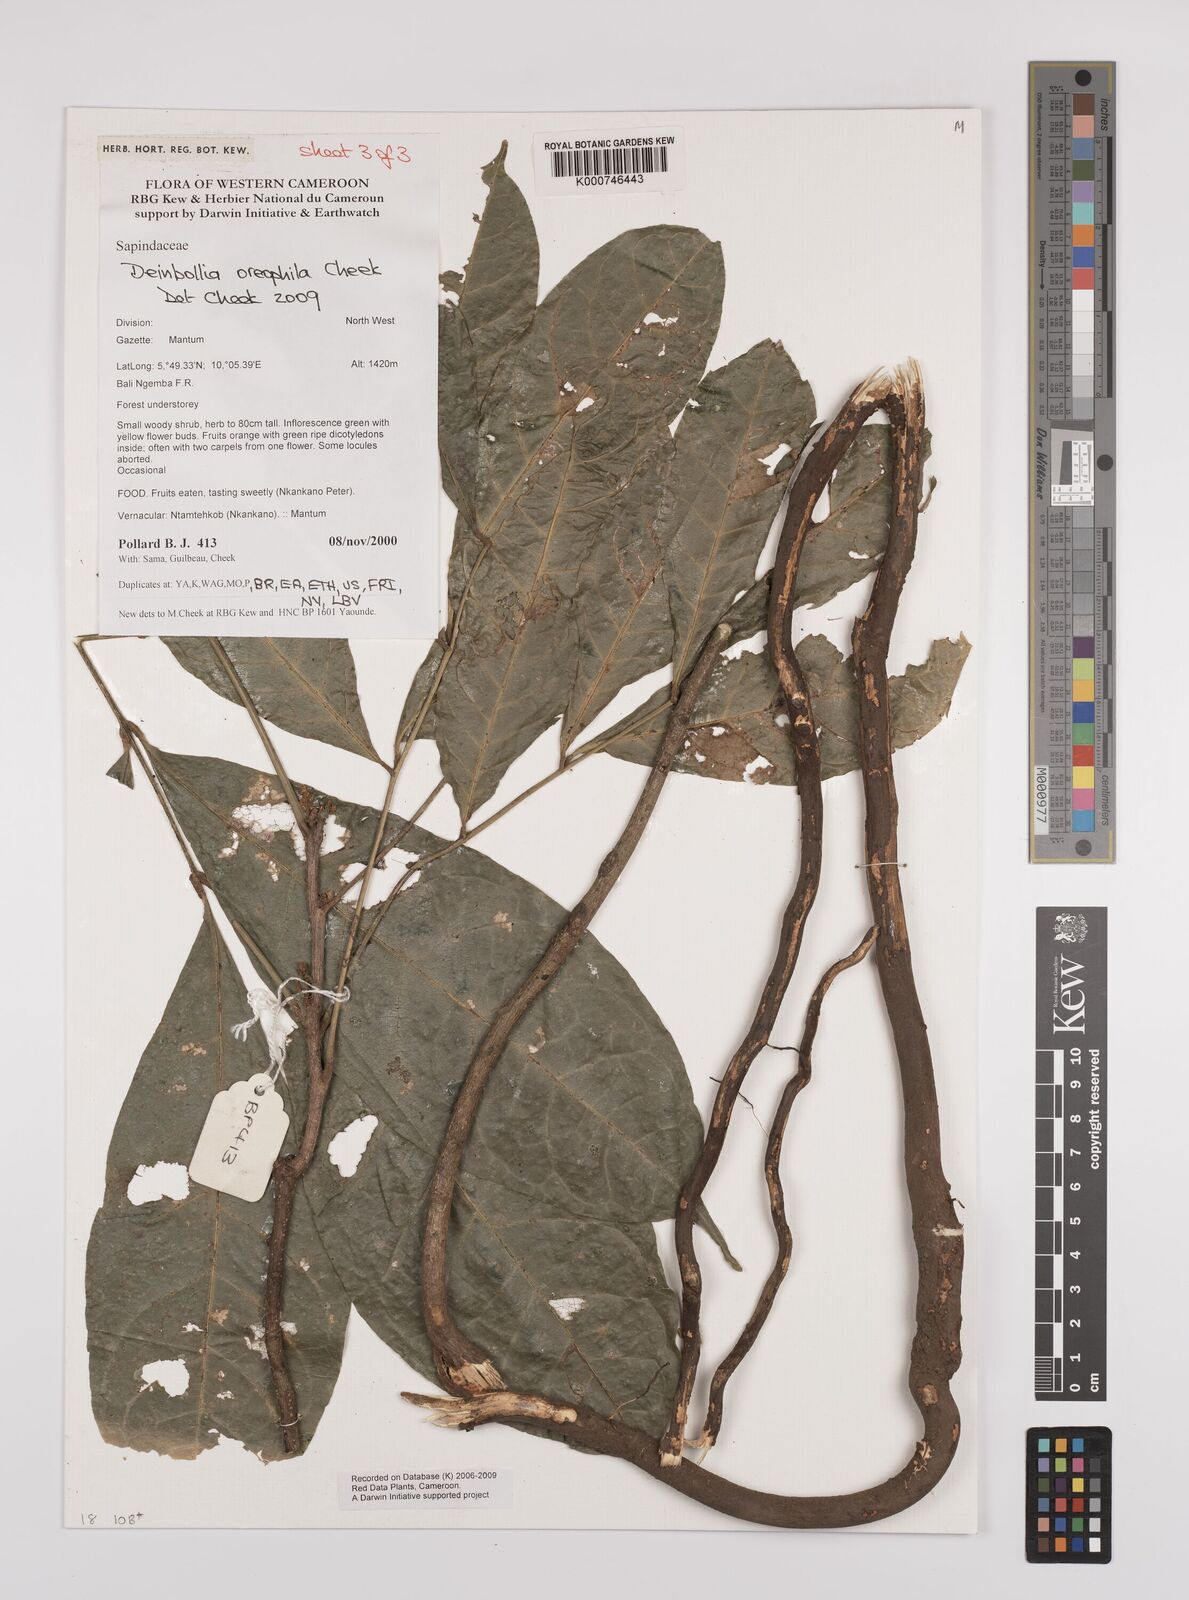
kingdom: Plantae
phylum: Tracheophyta
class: Magnoliopsida
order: Sapindales
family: Sapindaceae
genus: Deinbollia
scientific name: Deinbollia oreophila
